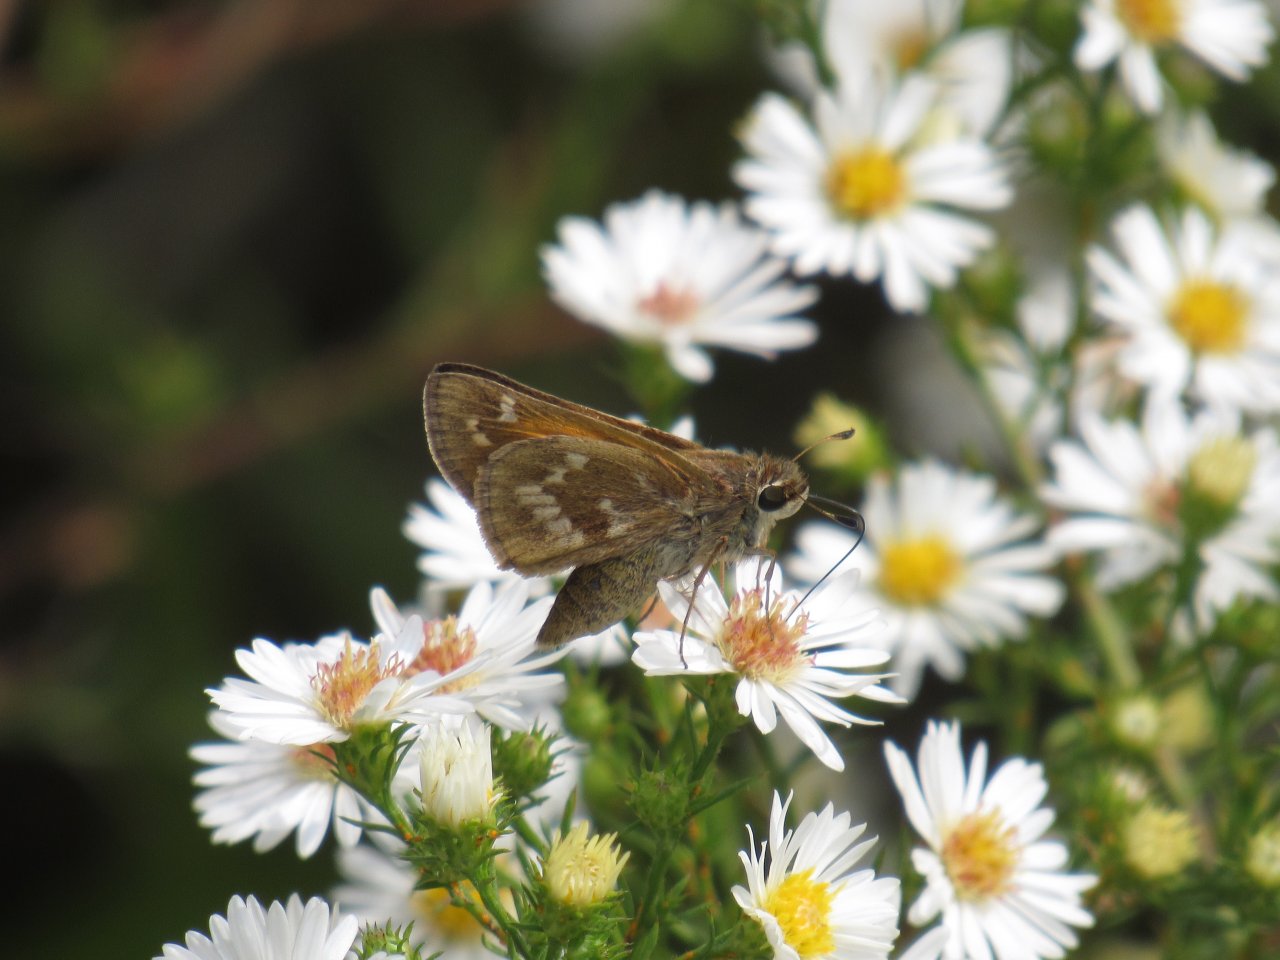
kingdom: Animalia
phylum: Arthropoda
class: Insecta
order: Lepidoptera
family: Hesperiidae
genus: Atalopedes
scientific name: Atalopedes campestris
